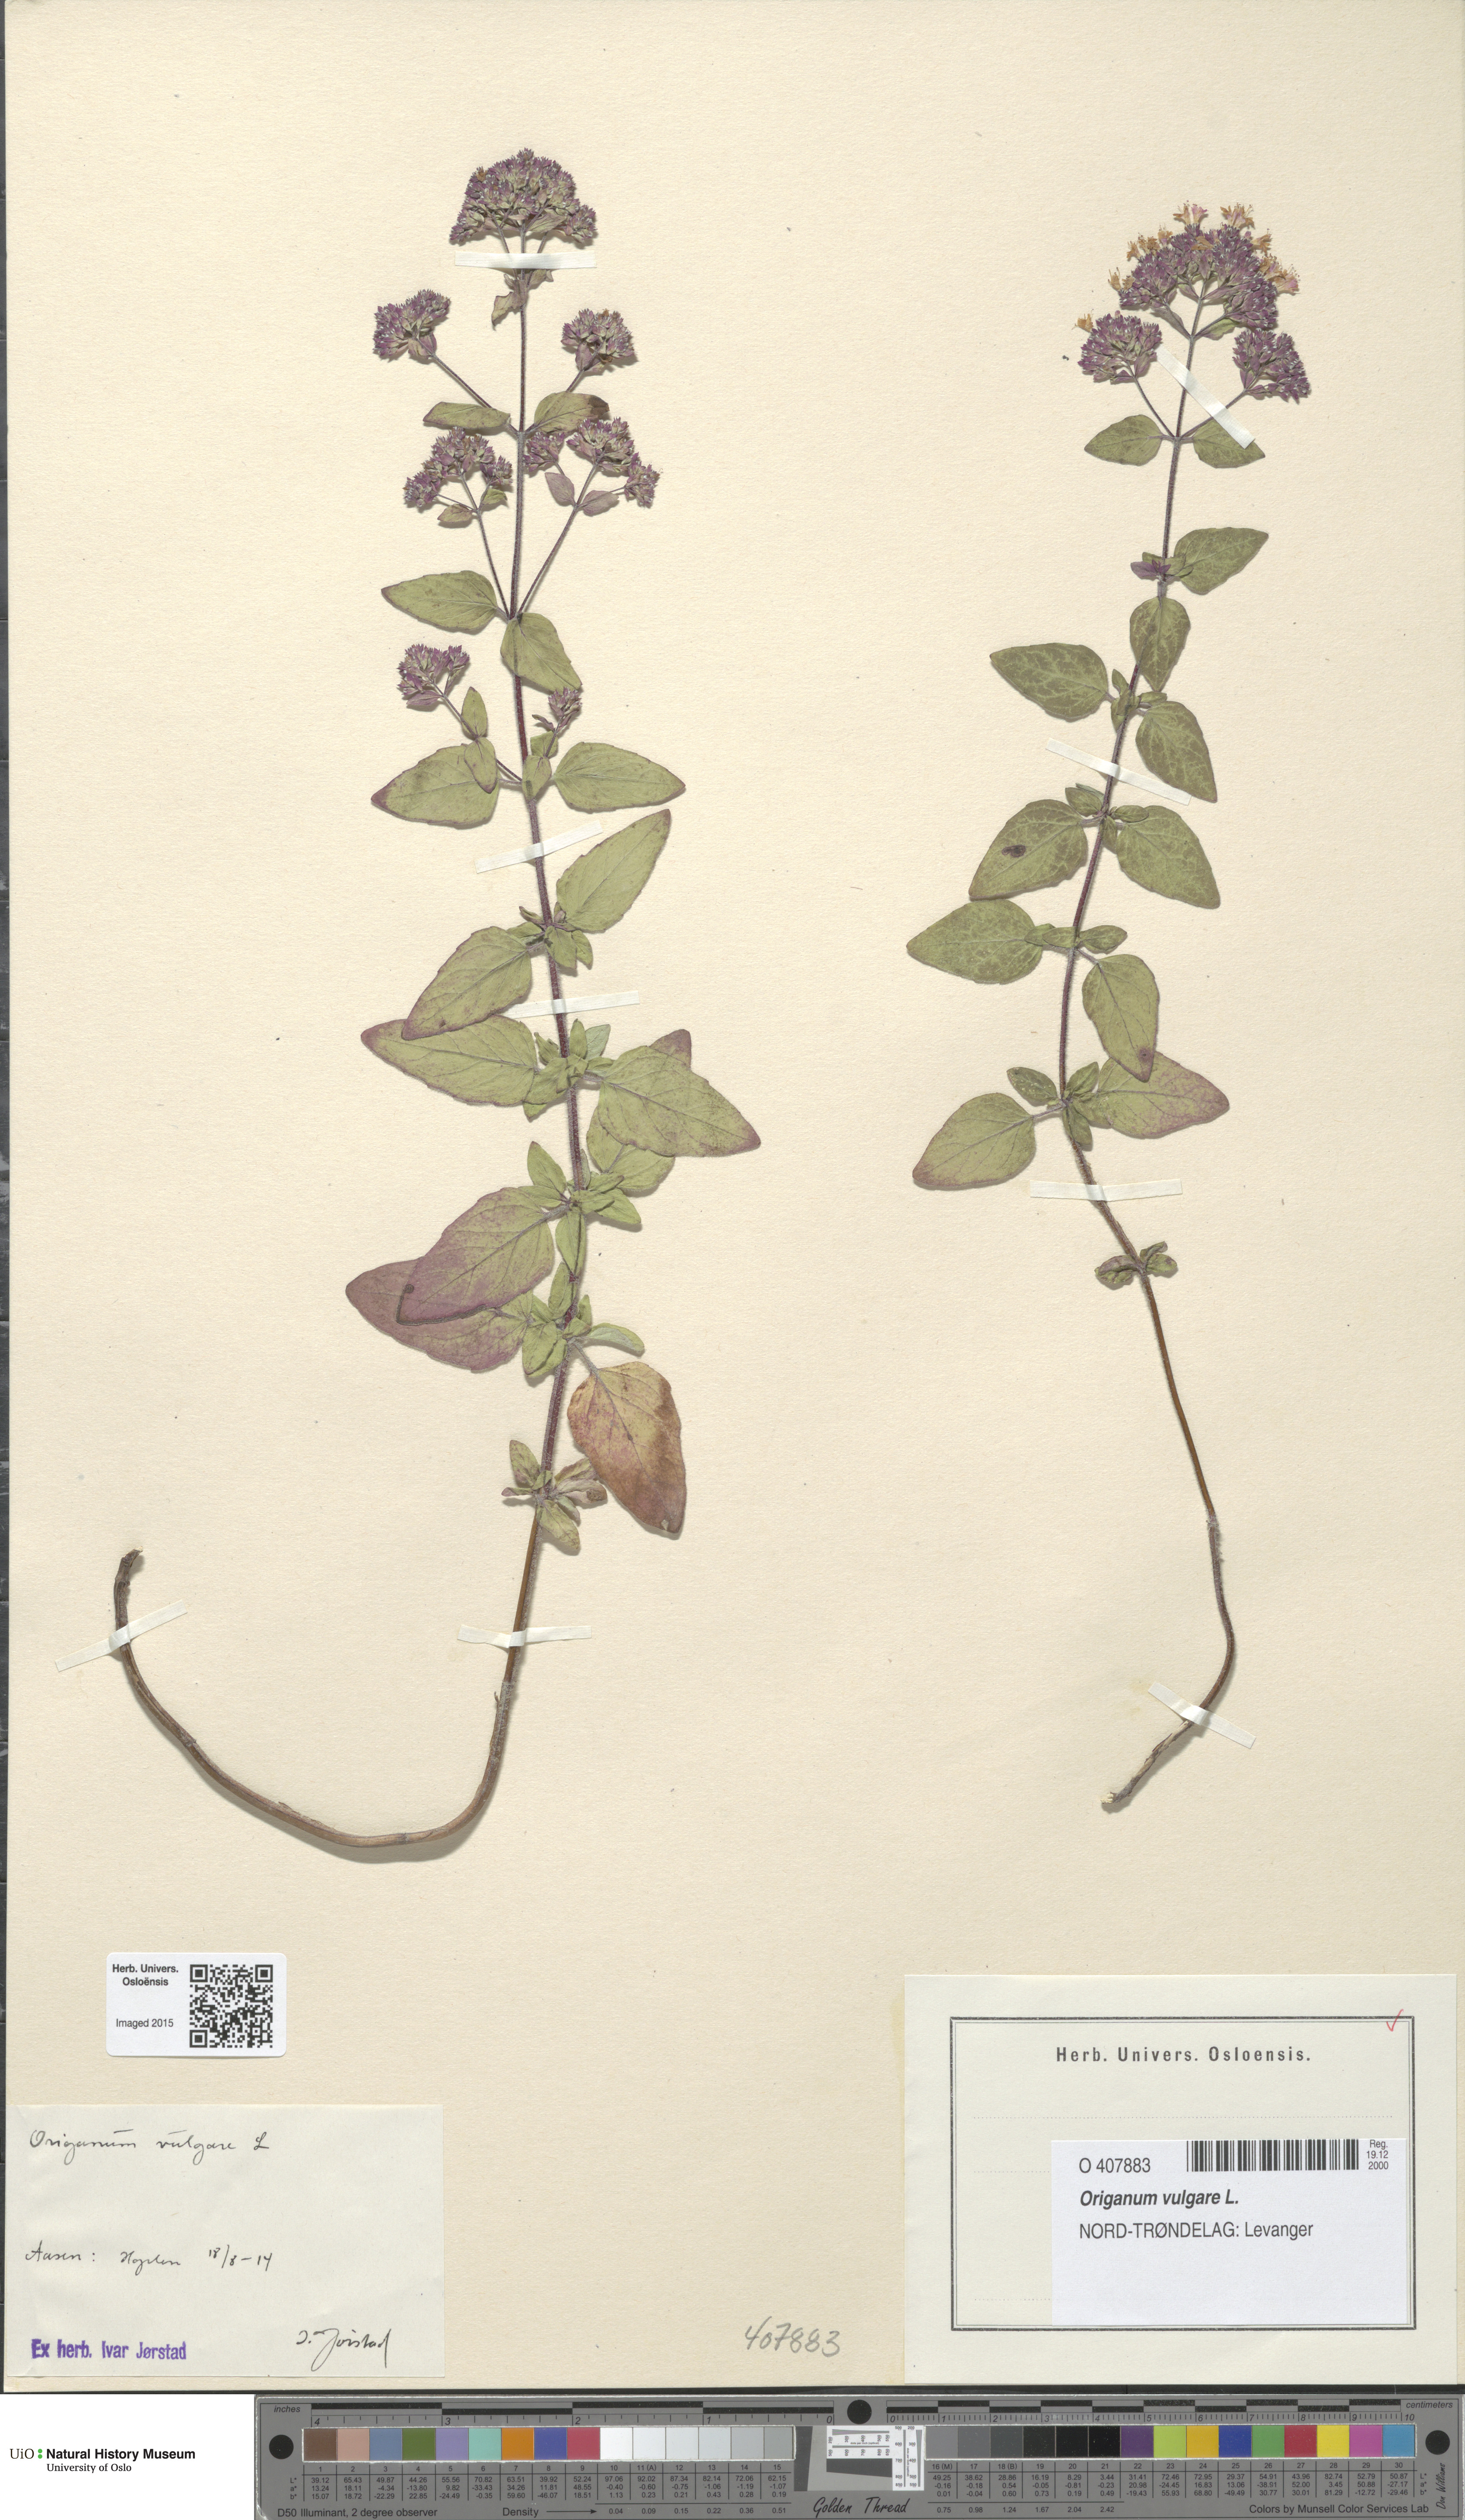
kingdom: Plantae
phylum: Tracheophyta
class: Magnoliopsida
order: Lamiales
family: Lamiaceae
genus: Origanum
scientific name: Origanum vulgare
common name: Wild marjoram
